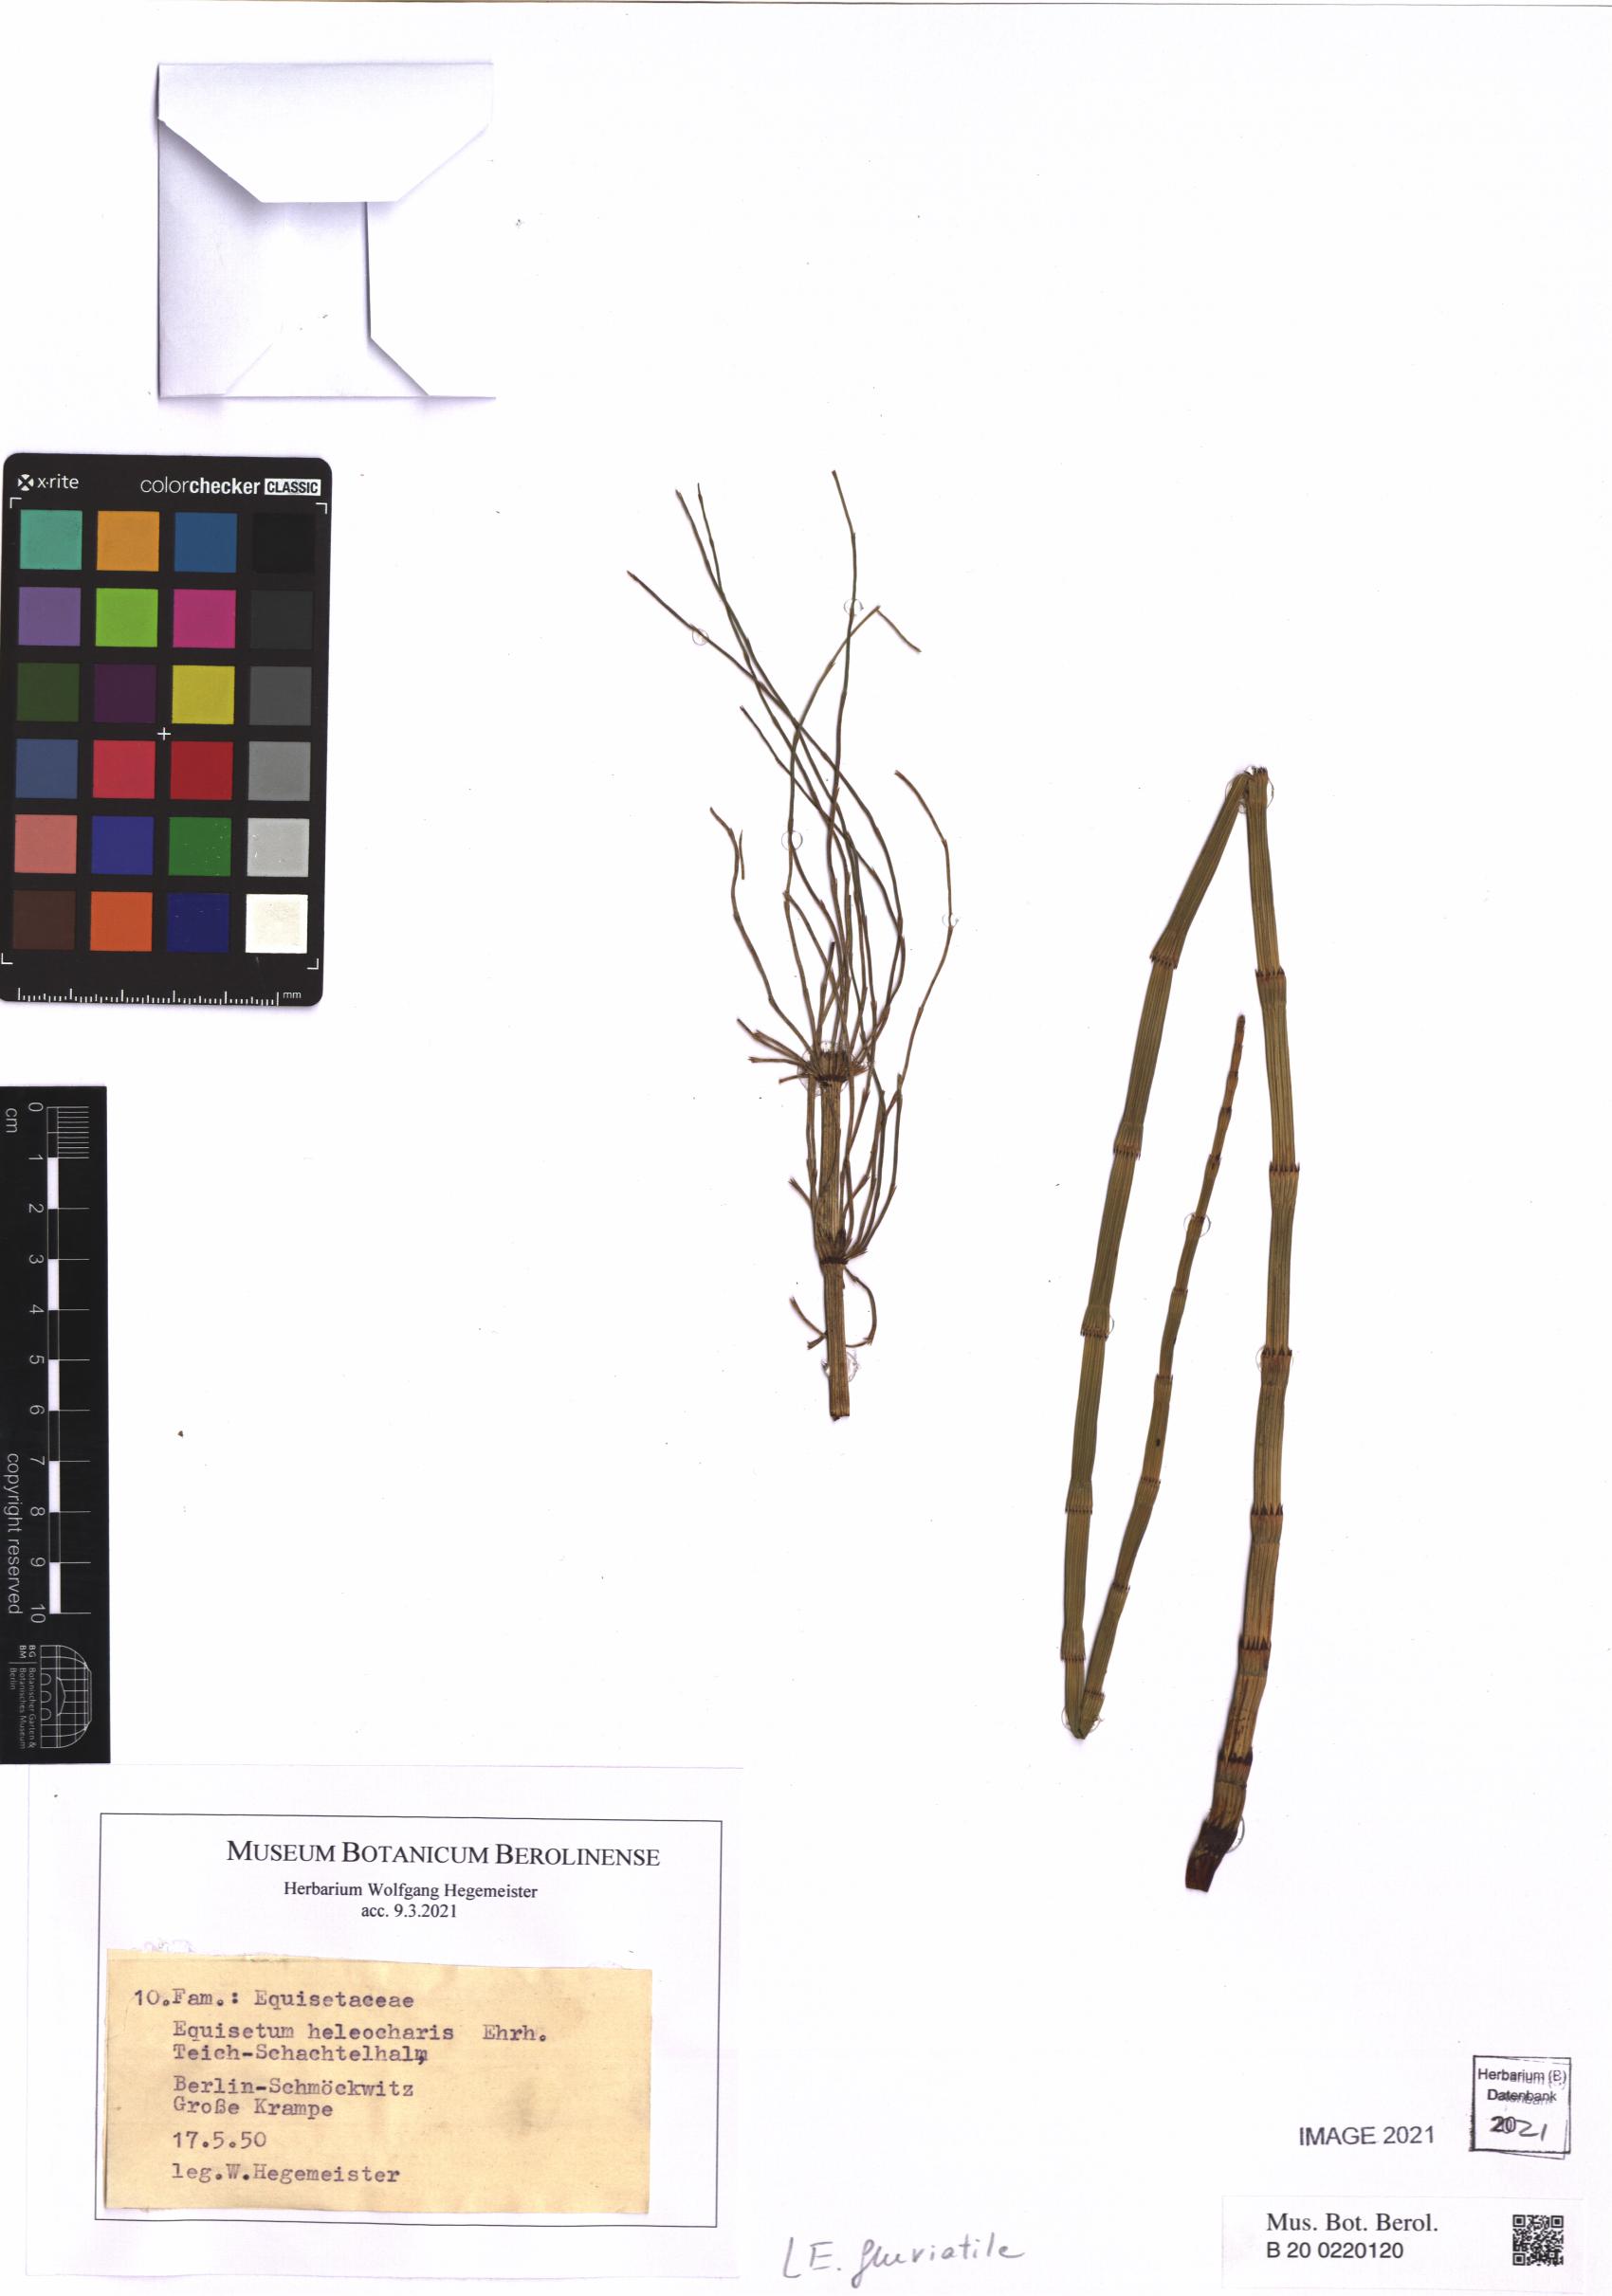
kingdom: Plantae
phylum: Tracheophyta
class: Polypodiopsida
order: Equisetales
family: Equisetaceae
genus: Equisetum
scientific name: Equisetum fluviatile
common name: Water horsetail
